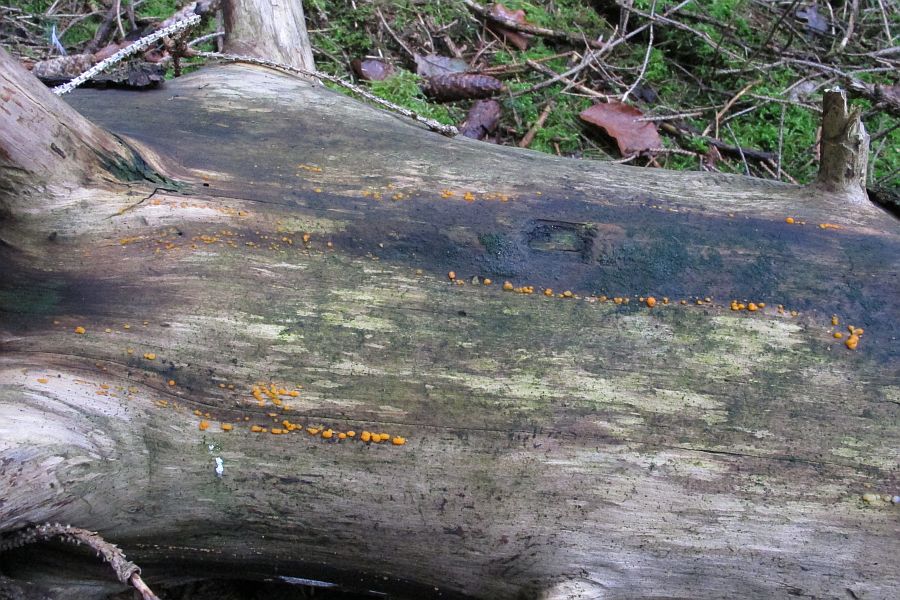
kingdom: Fungi
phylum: Basidiomycota
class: Dacrymycetes
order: Dacrymycetales
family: Dacrymycetaceae
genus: Dacrymyces
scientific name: Dacrymyces stillatus
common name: almindelig tåresvamp
